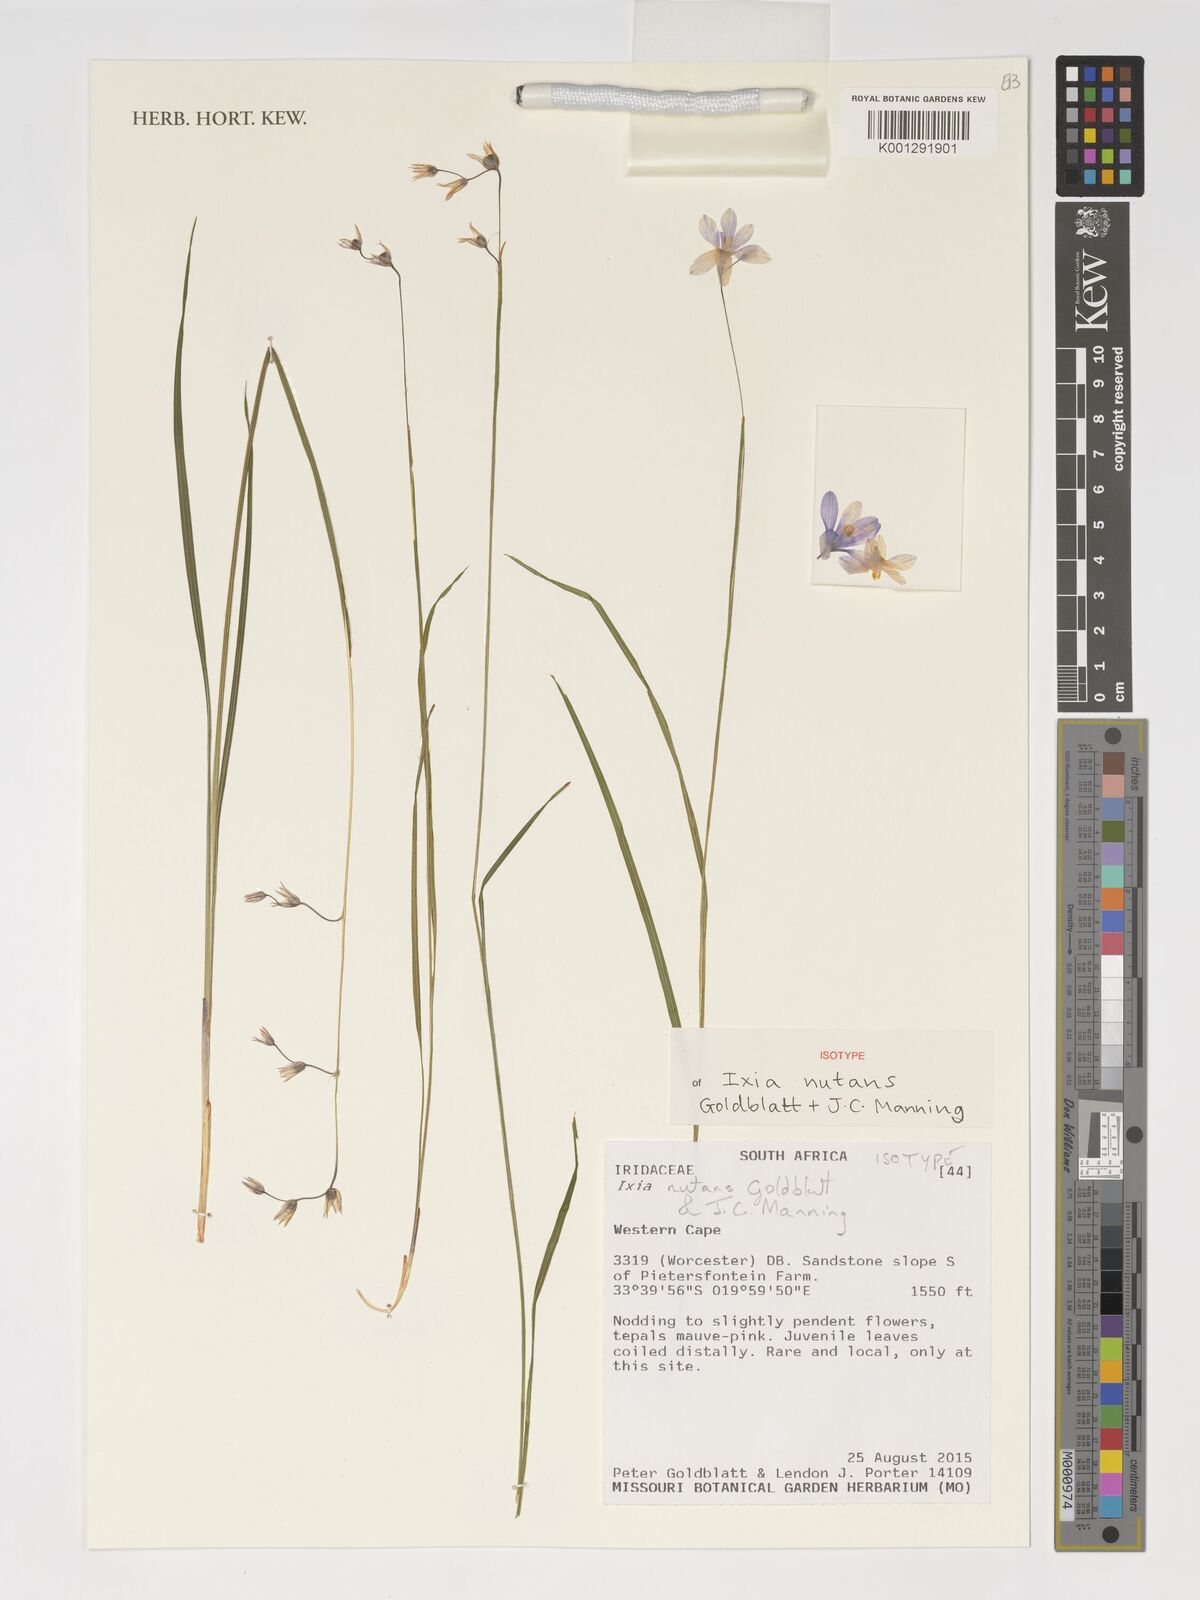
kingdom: Plantae
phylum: Tracheophyta
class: Liliopsida
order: Asparagales
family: Iridaceae
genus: Ixia
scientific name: Ixia nutans
